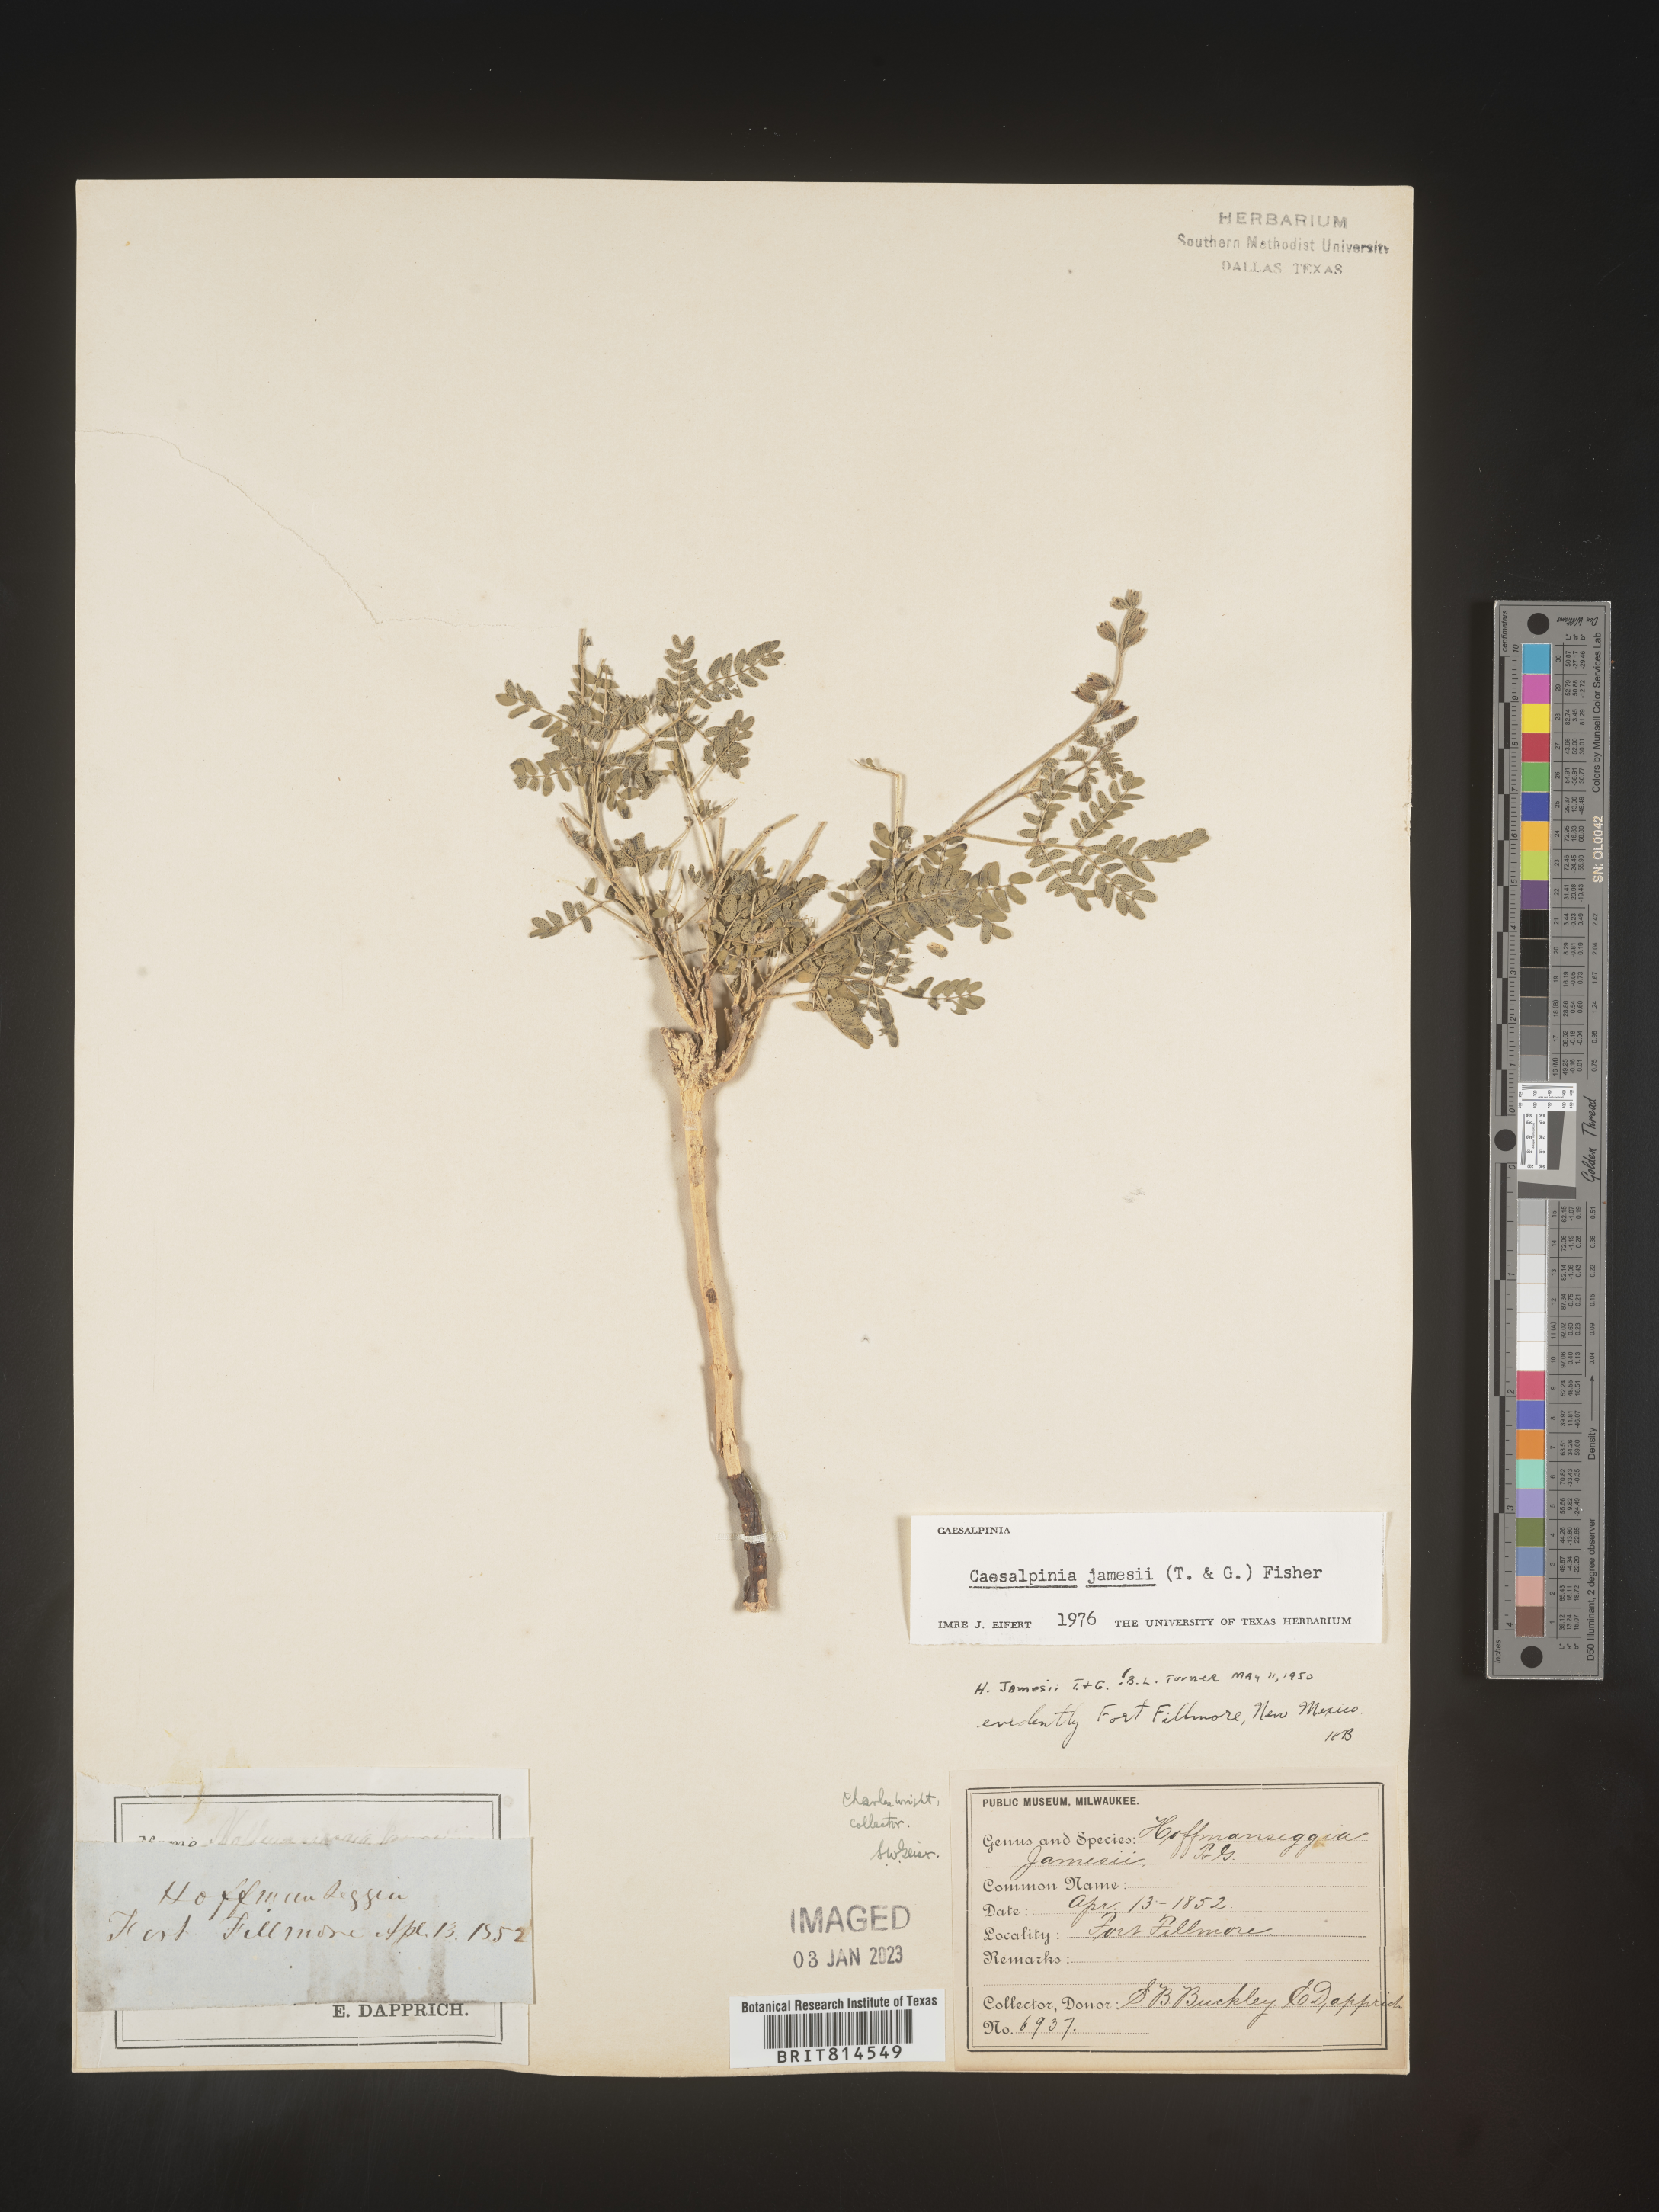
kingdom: Plantae
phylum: Tracheophyta
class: Magnoliopsida
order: Fabales
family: Fabaceae
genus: Caesalpinia
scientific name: Caesalpinia
